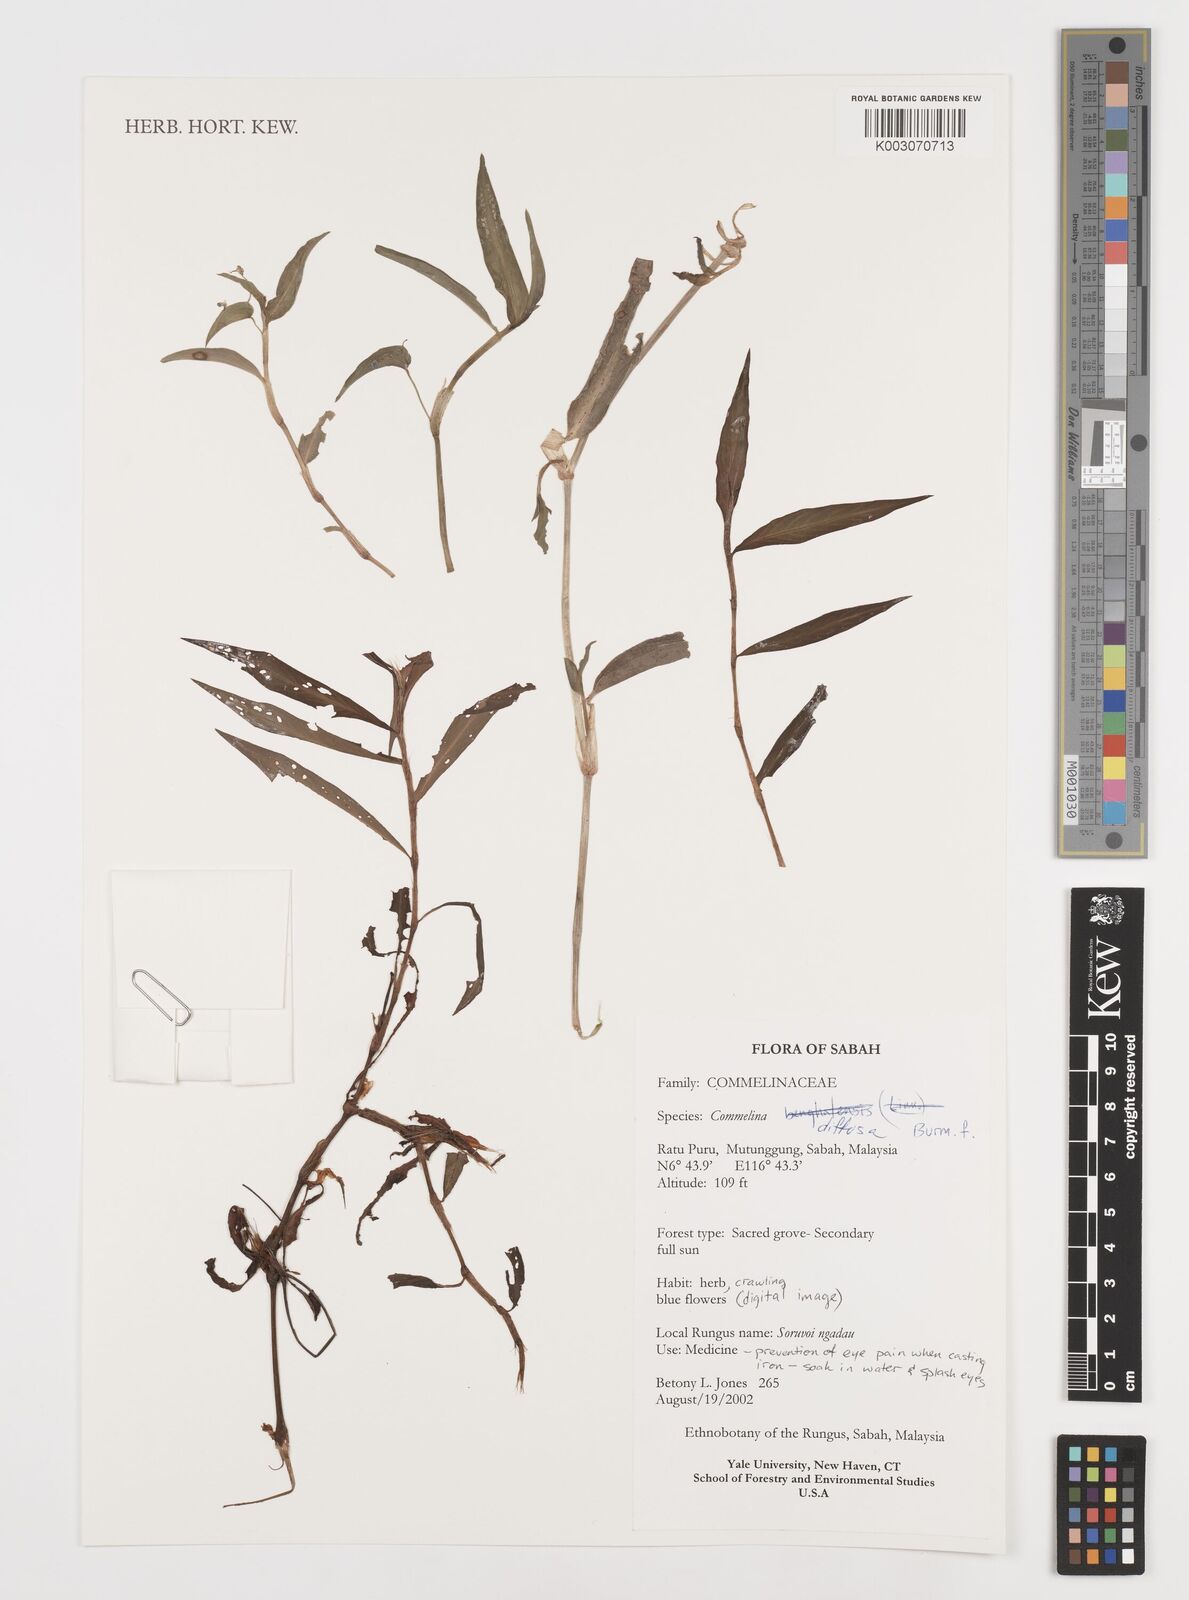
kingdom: Plantae
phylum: Tracheophyta
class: Liliopsida
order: Commelinales
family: Commelinaceae
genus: Commelina
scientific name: Commelina clavata
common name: Willow leaved dayflower
